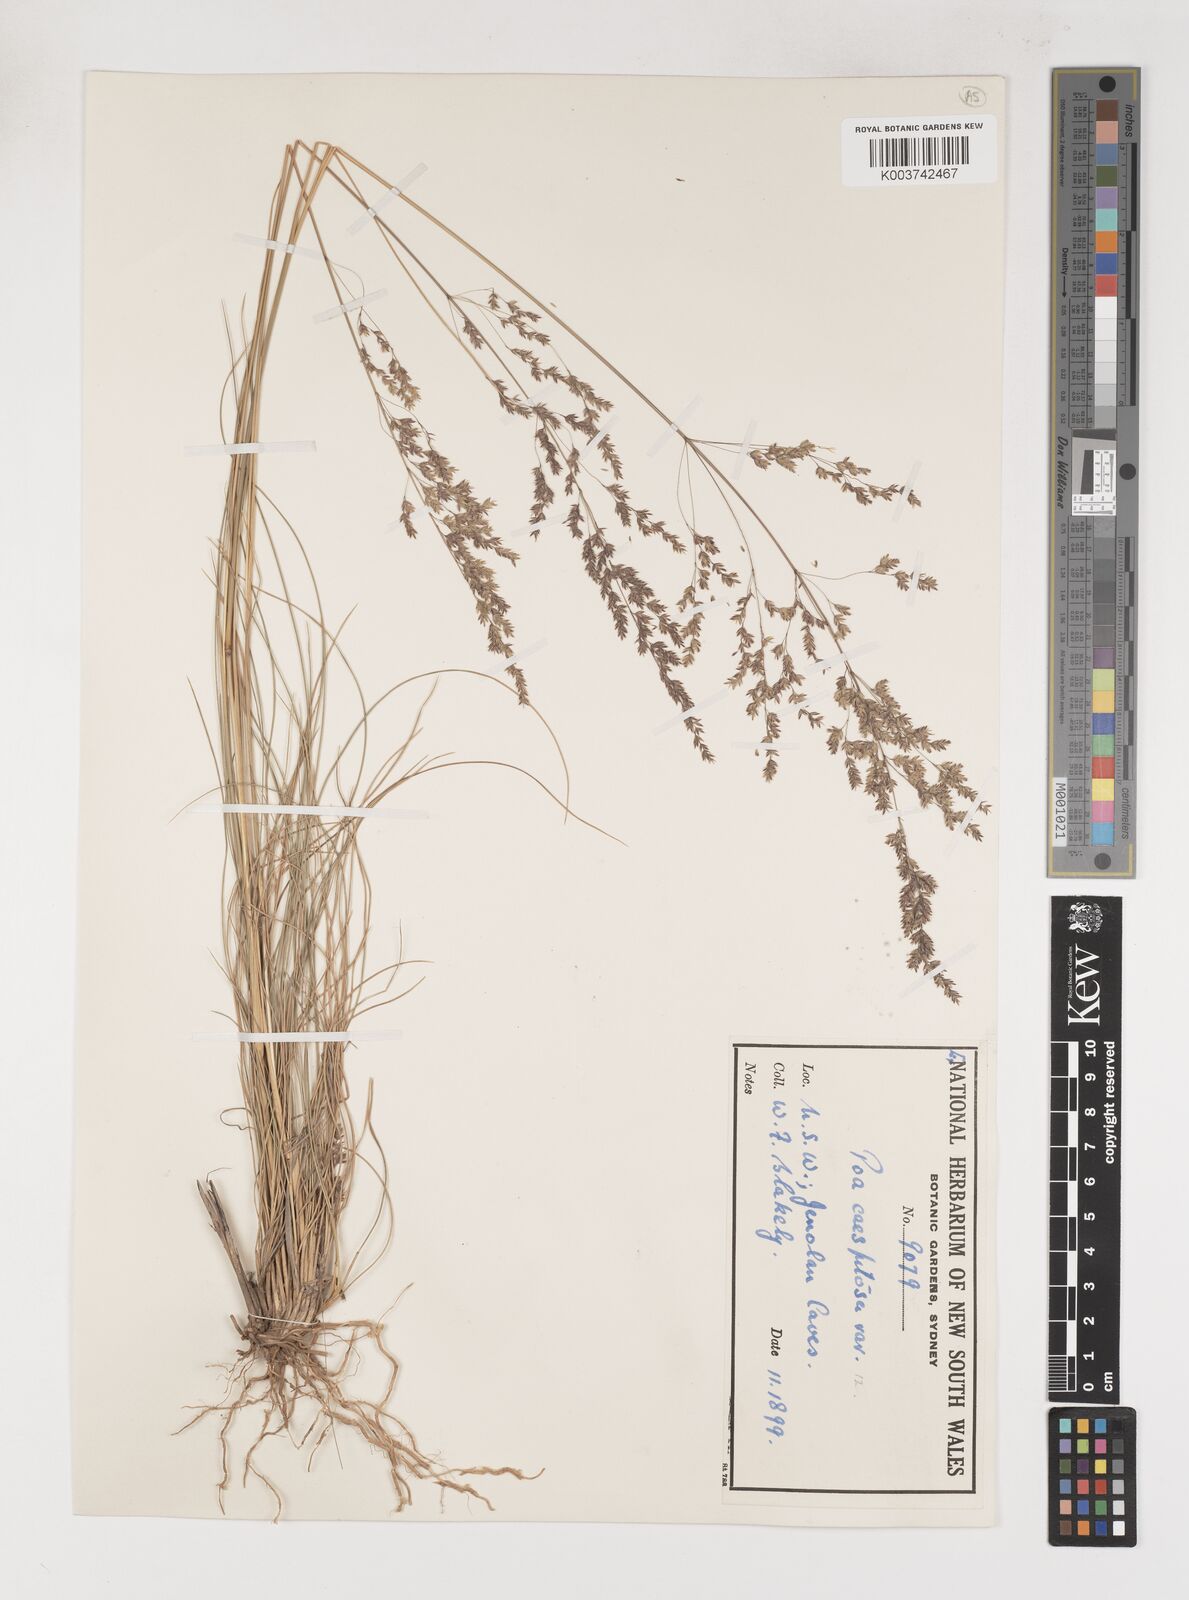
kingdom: Plantae
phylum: Tracheophyta
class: Liliopsida
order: Poales
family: Poaceae
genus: Poa
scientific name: Poa
